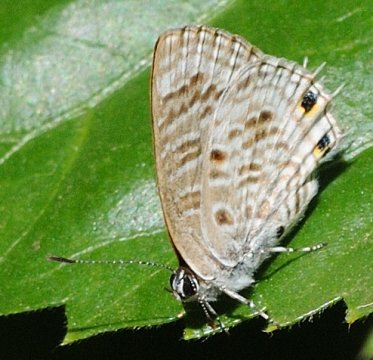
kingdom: Animalia
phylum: Arthropoda
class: Insecta
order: Lepidoptera
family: Lycaenidae
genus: Anthene
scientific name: Anthene
